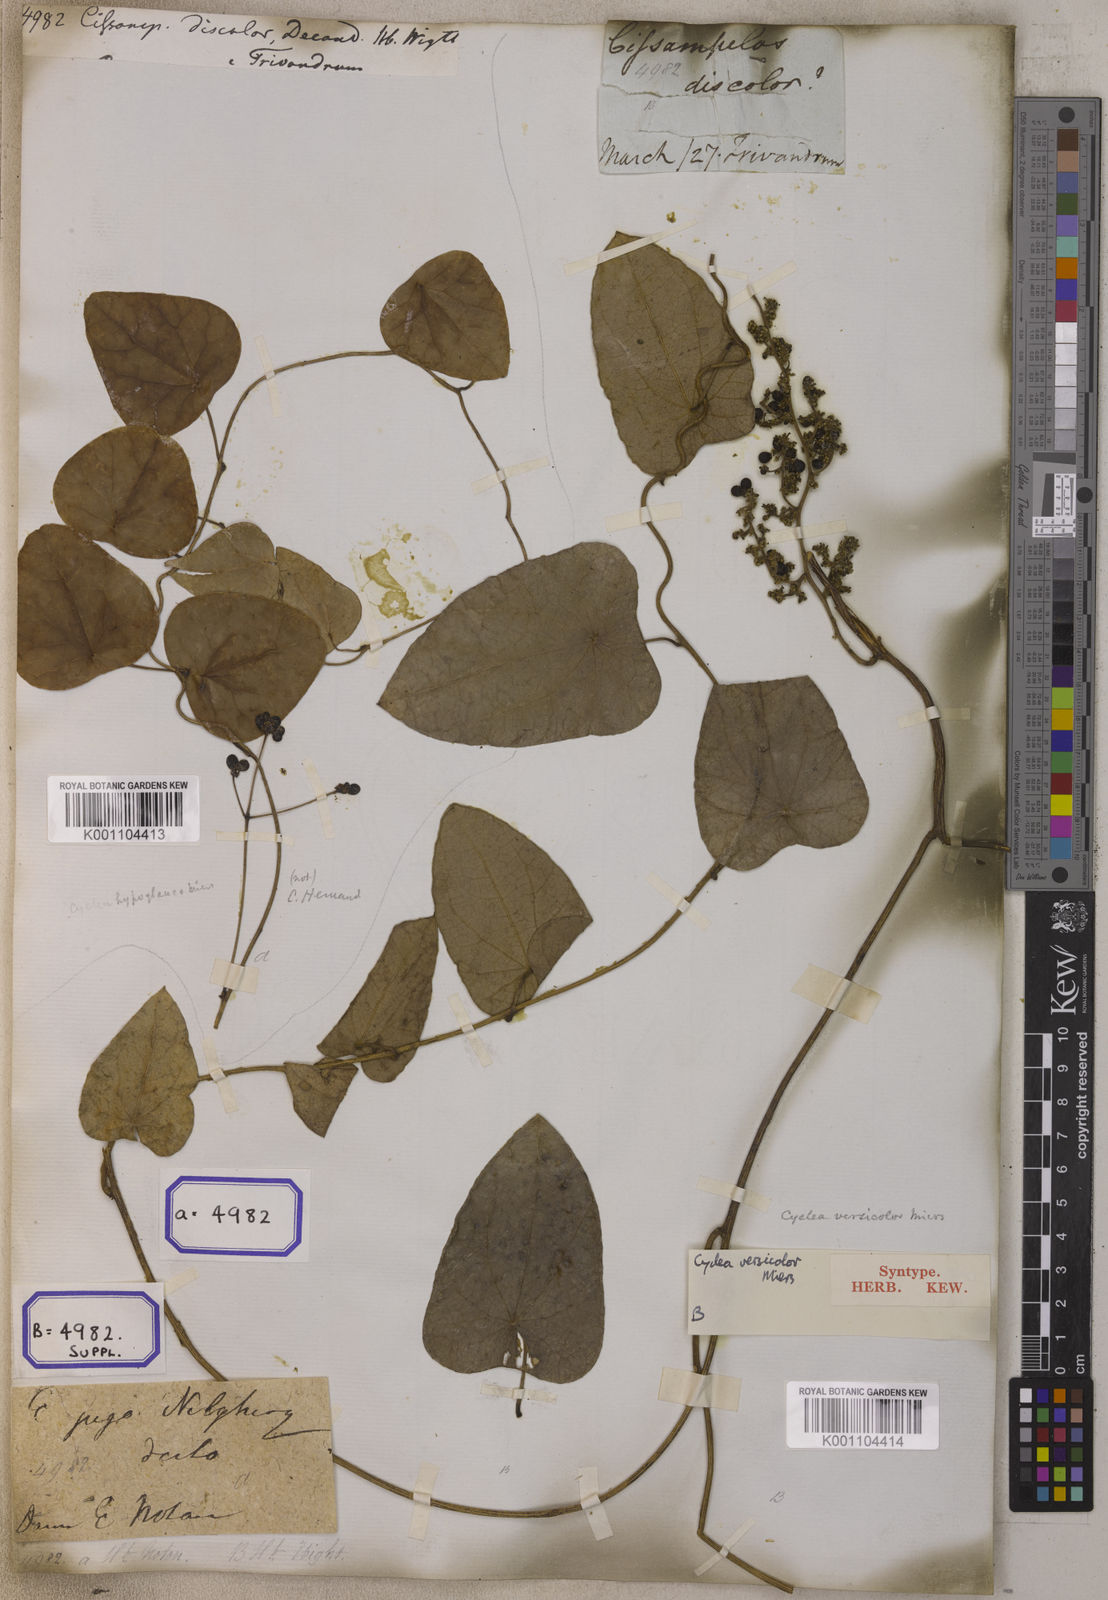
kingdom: Plantae
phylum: Tracheophyta
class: Magnoliopsida
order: Ranunculales
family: Menispermaceae
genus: Cissampelos
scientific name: Cissampelos pareira
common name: Velvetleaf
